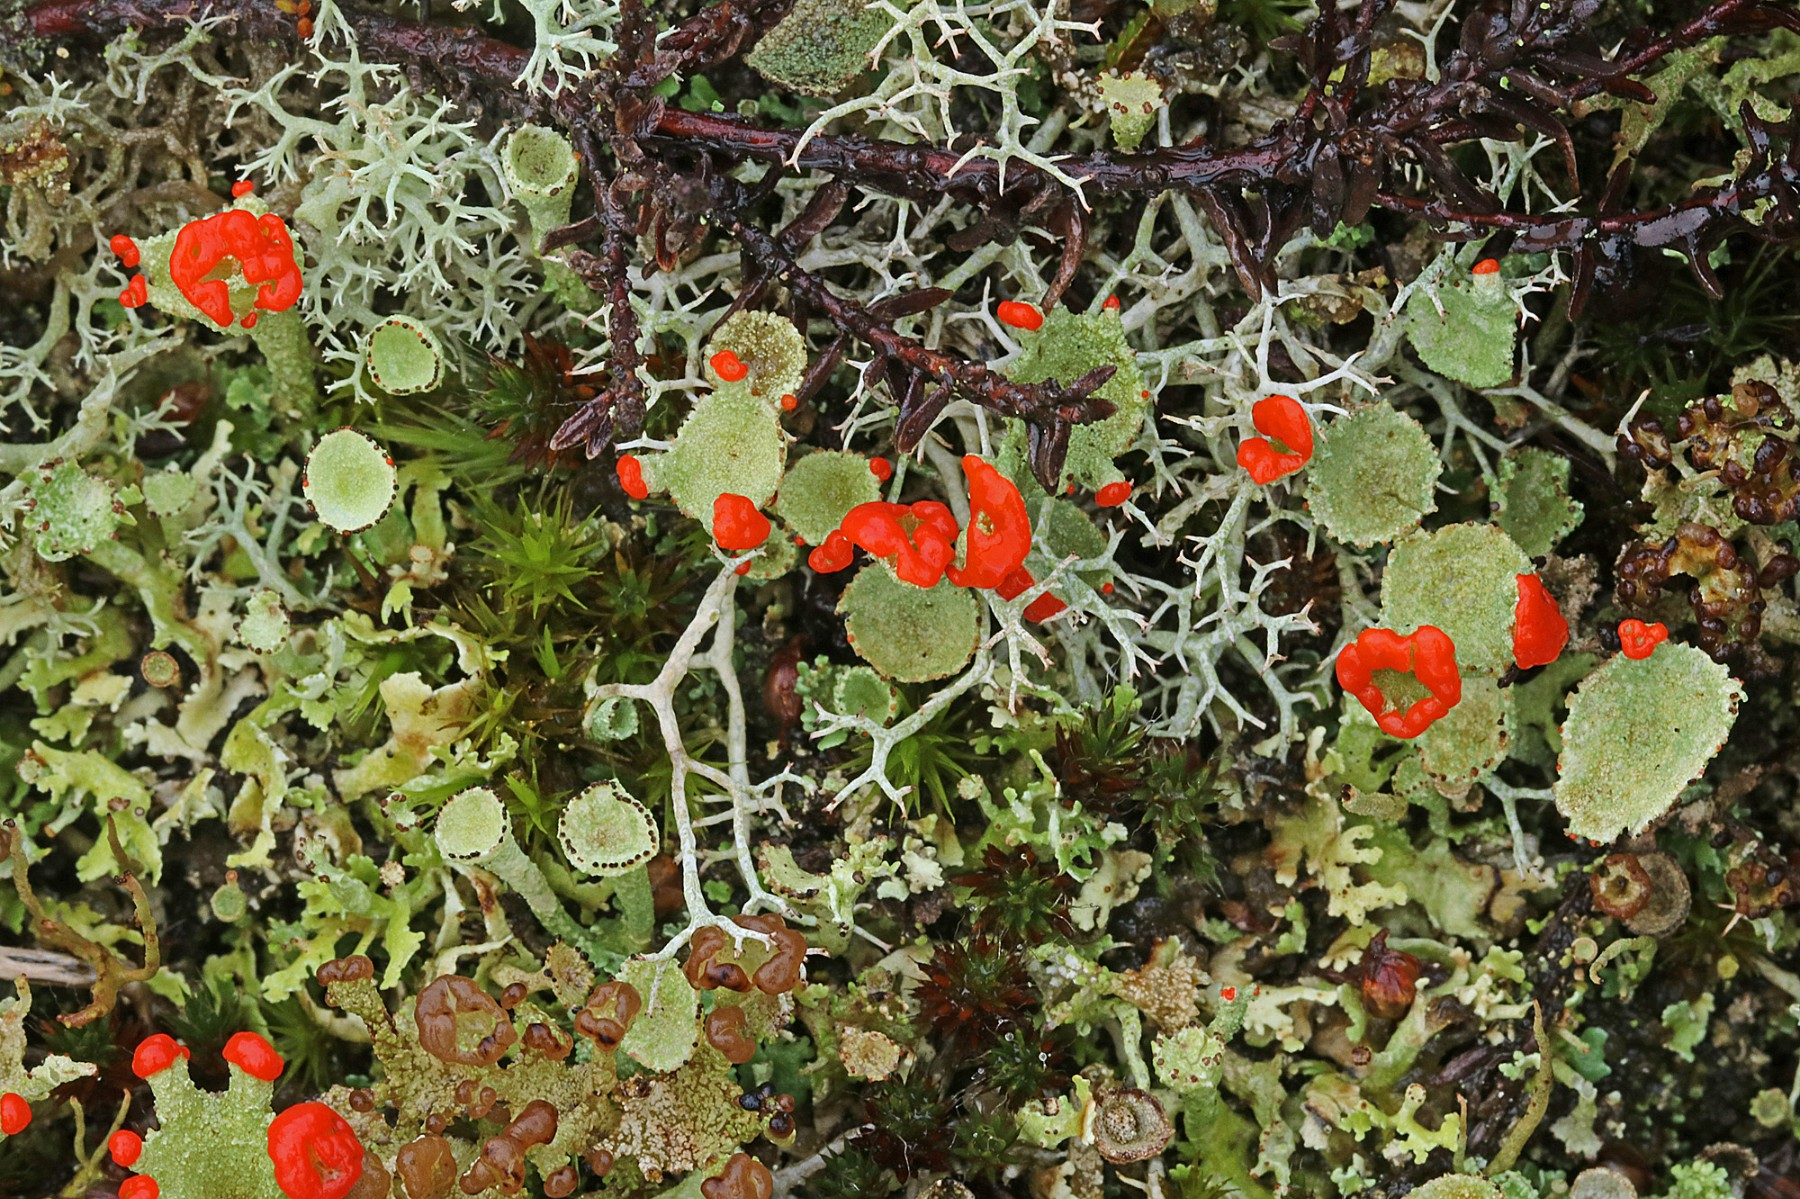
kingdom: Fungi
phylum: Ascomycota
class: Lecanoromycetes
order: Lecanorales
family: Cladoniaceae
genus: Cladonia
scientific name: Cladonia diversa
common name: rød bægerlav
